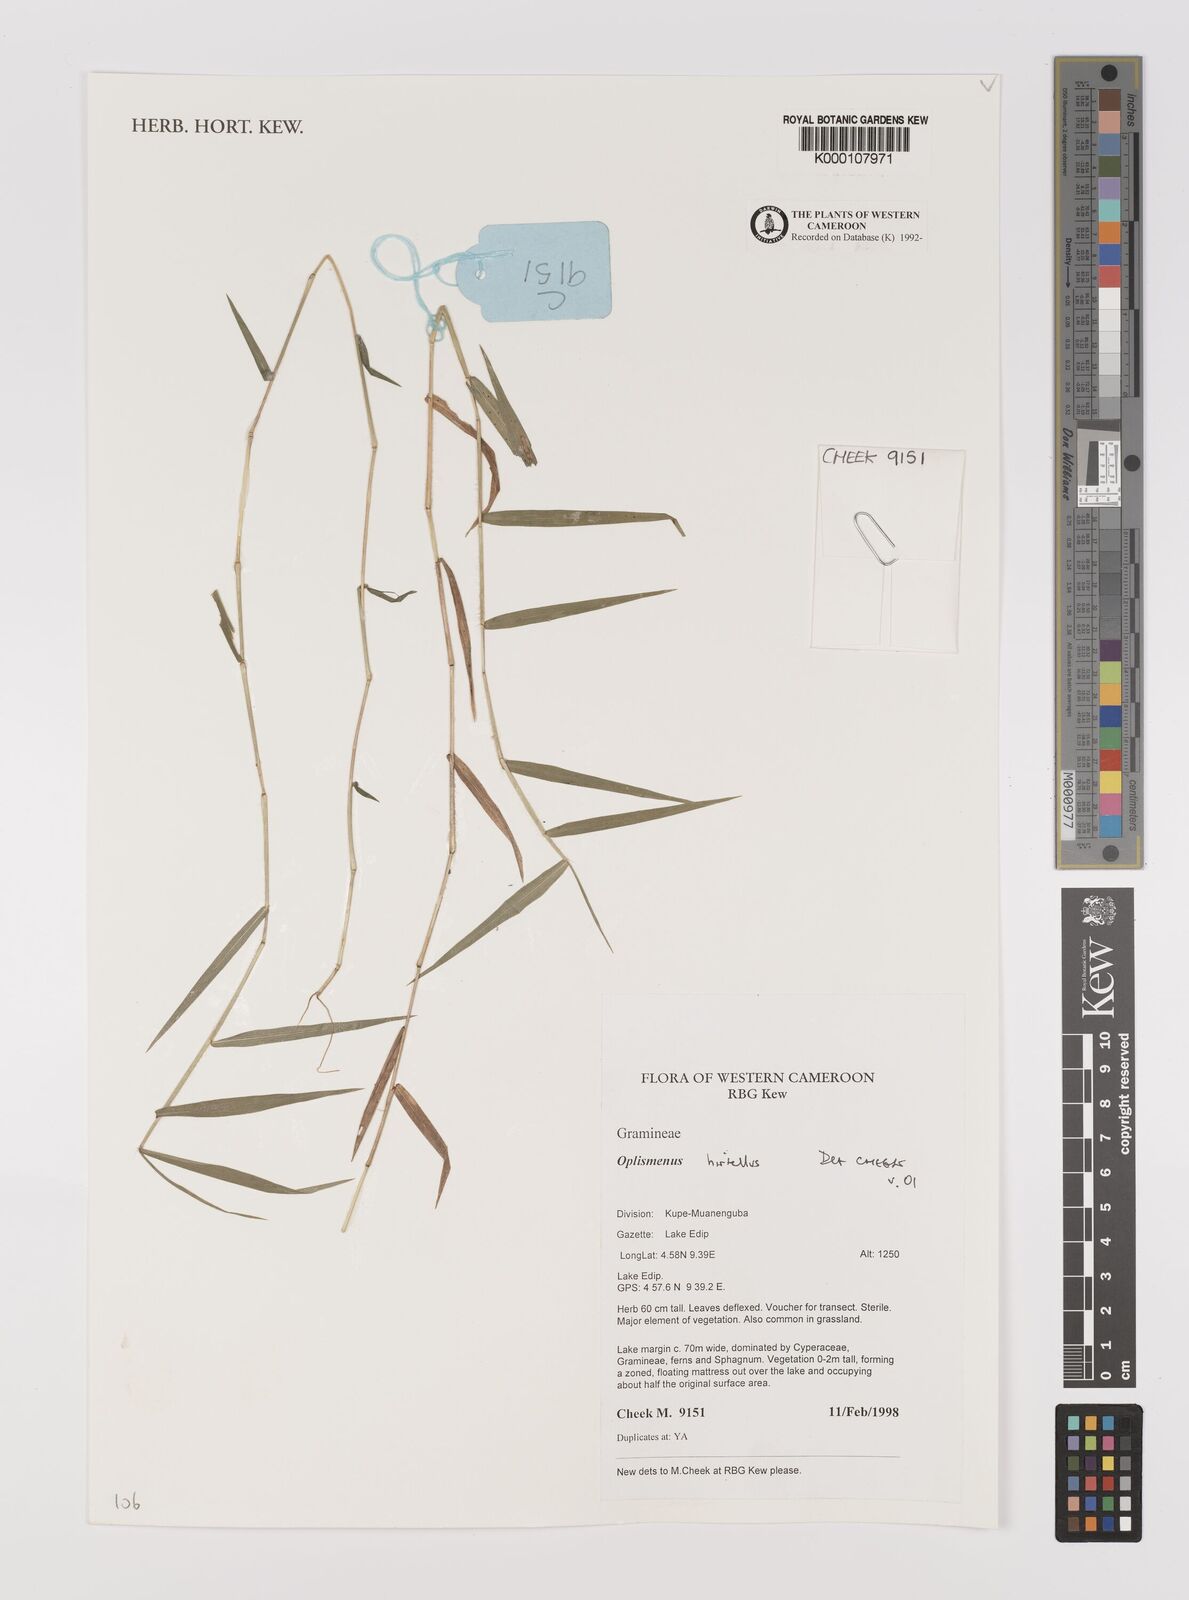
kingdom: Plantae
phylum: Tracheophyta
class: Liliopsida
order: Poales
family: Poaceae
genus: Oplismenus
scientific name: Oplismenus hirtellus
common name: Basketgrass
